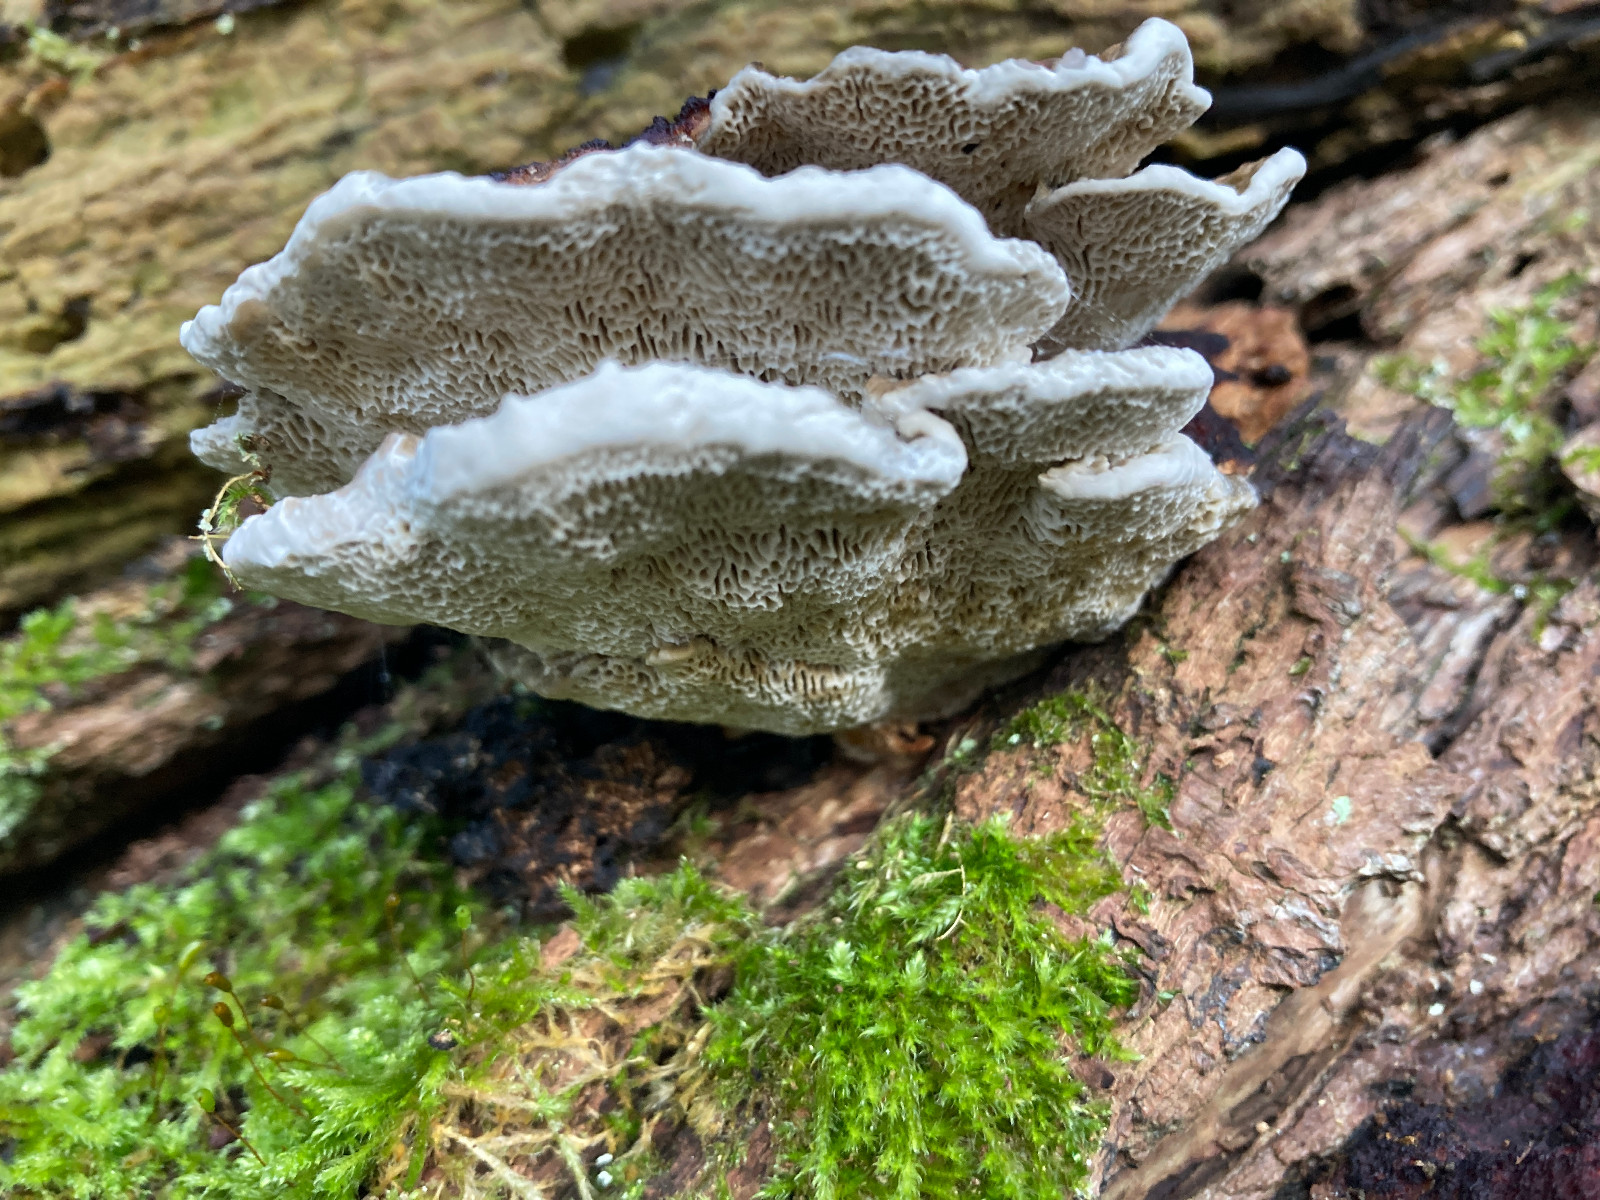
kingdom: Fungi
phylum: Basidiomycota
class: Agaricomycetes
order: Polyporales
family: Polyporaceae
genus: Daedaleopsis
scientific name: Daedaleopsis confragosa
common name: rødmende læderporesvamp
